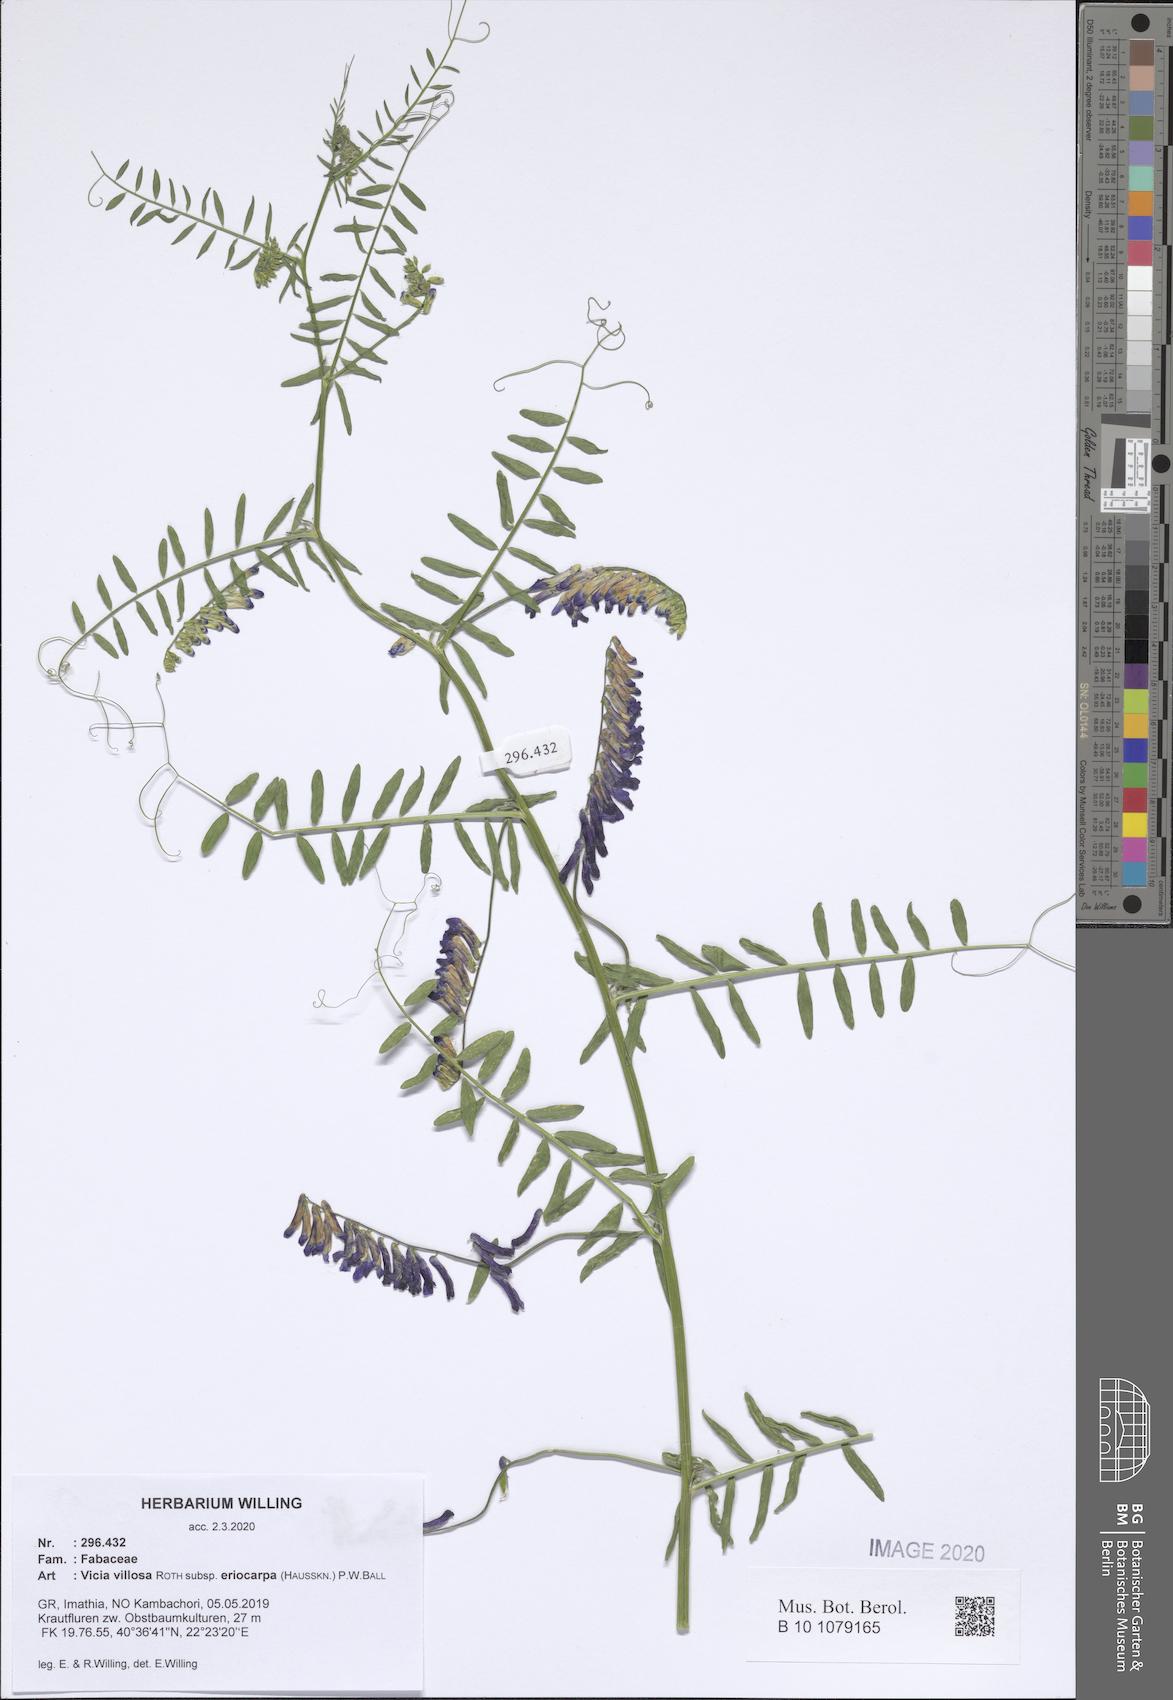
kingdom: Plantae
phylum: Tracheophyta
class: Magnoliopsida
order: Fabales
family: Fabaceae
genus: Vicia
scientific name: Vicia eriocarpa
